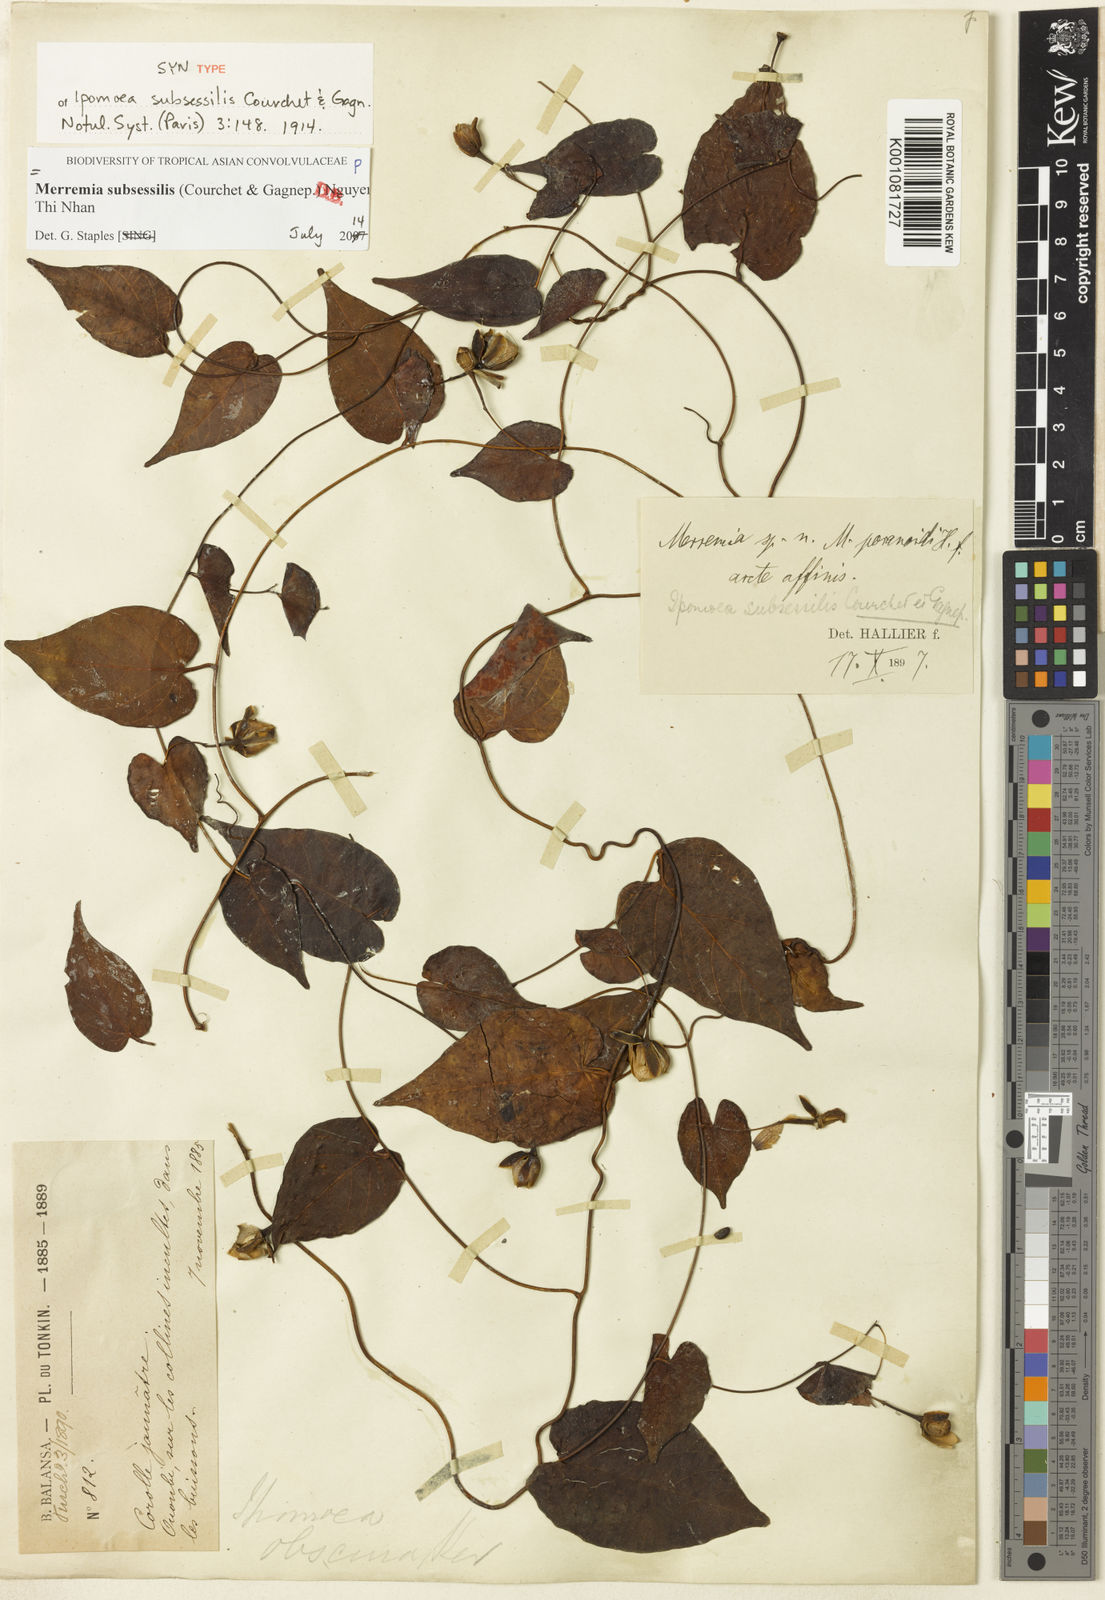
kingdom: Plantae
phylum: Tracheophyta
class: Magnoliopsida
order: Solanales
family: Convolvulaceae
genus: Merremia
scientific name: Merremia subsessilis
